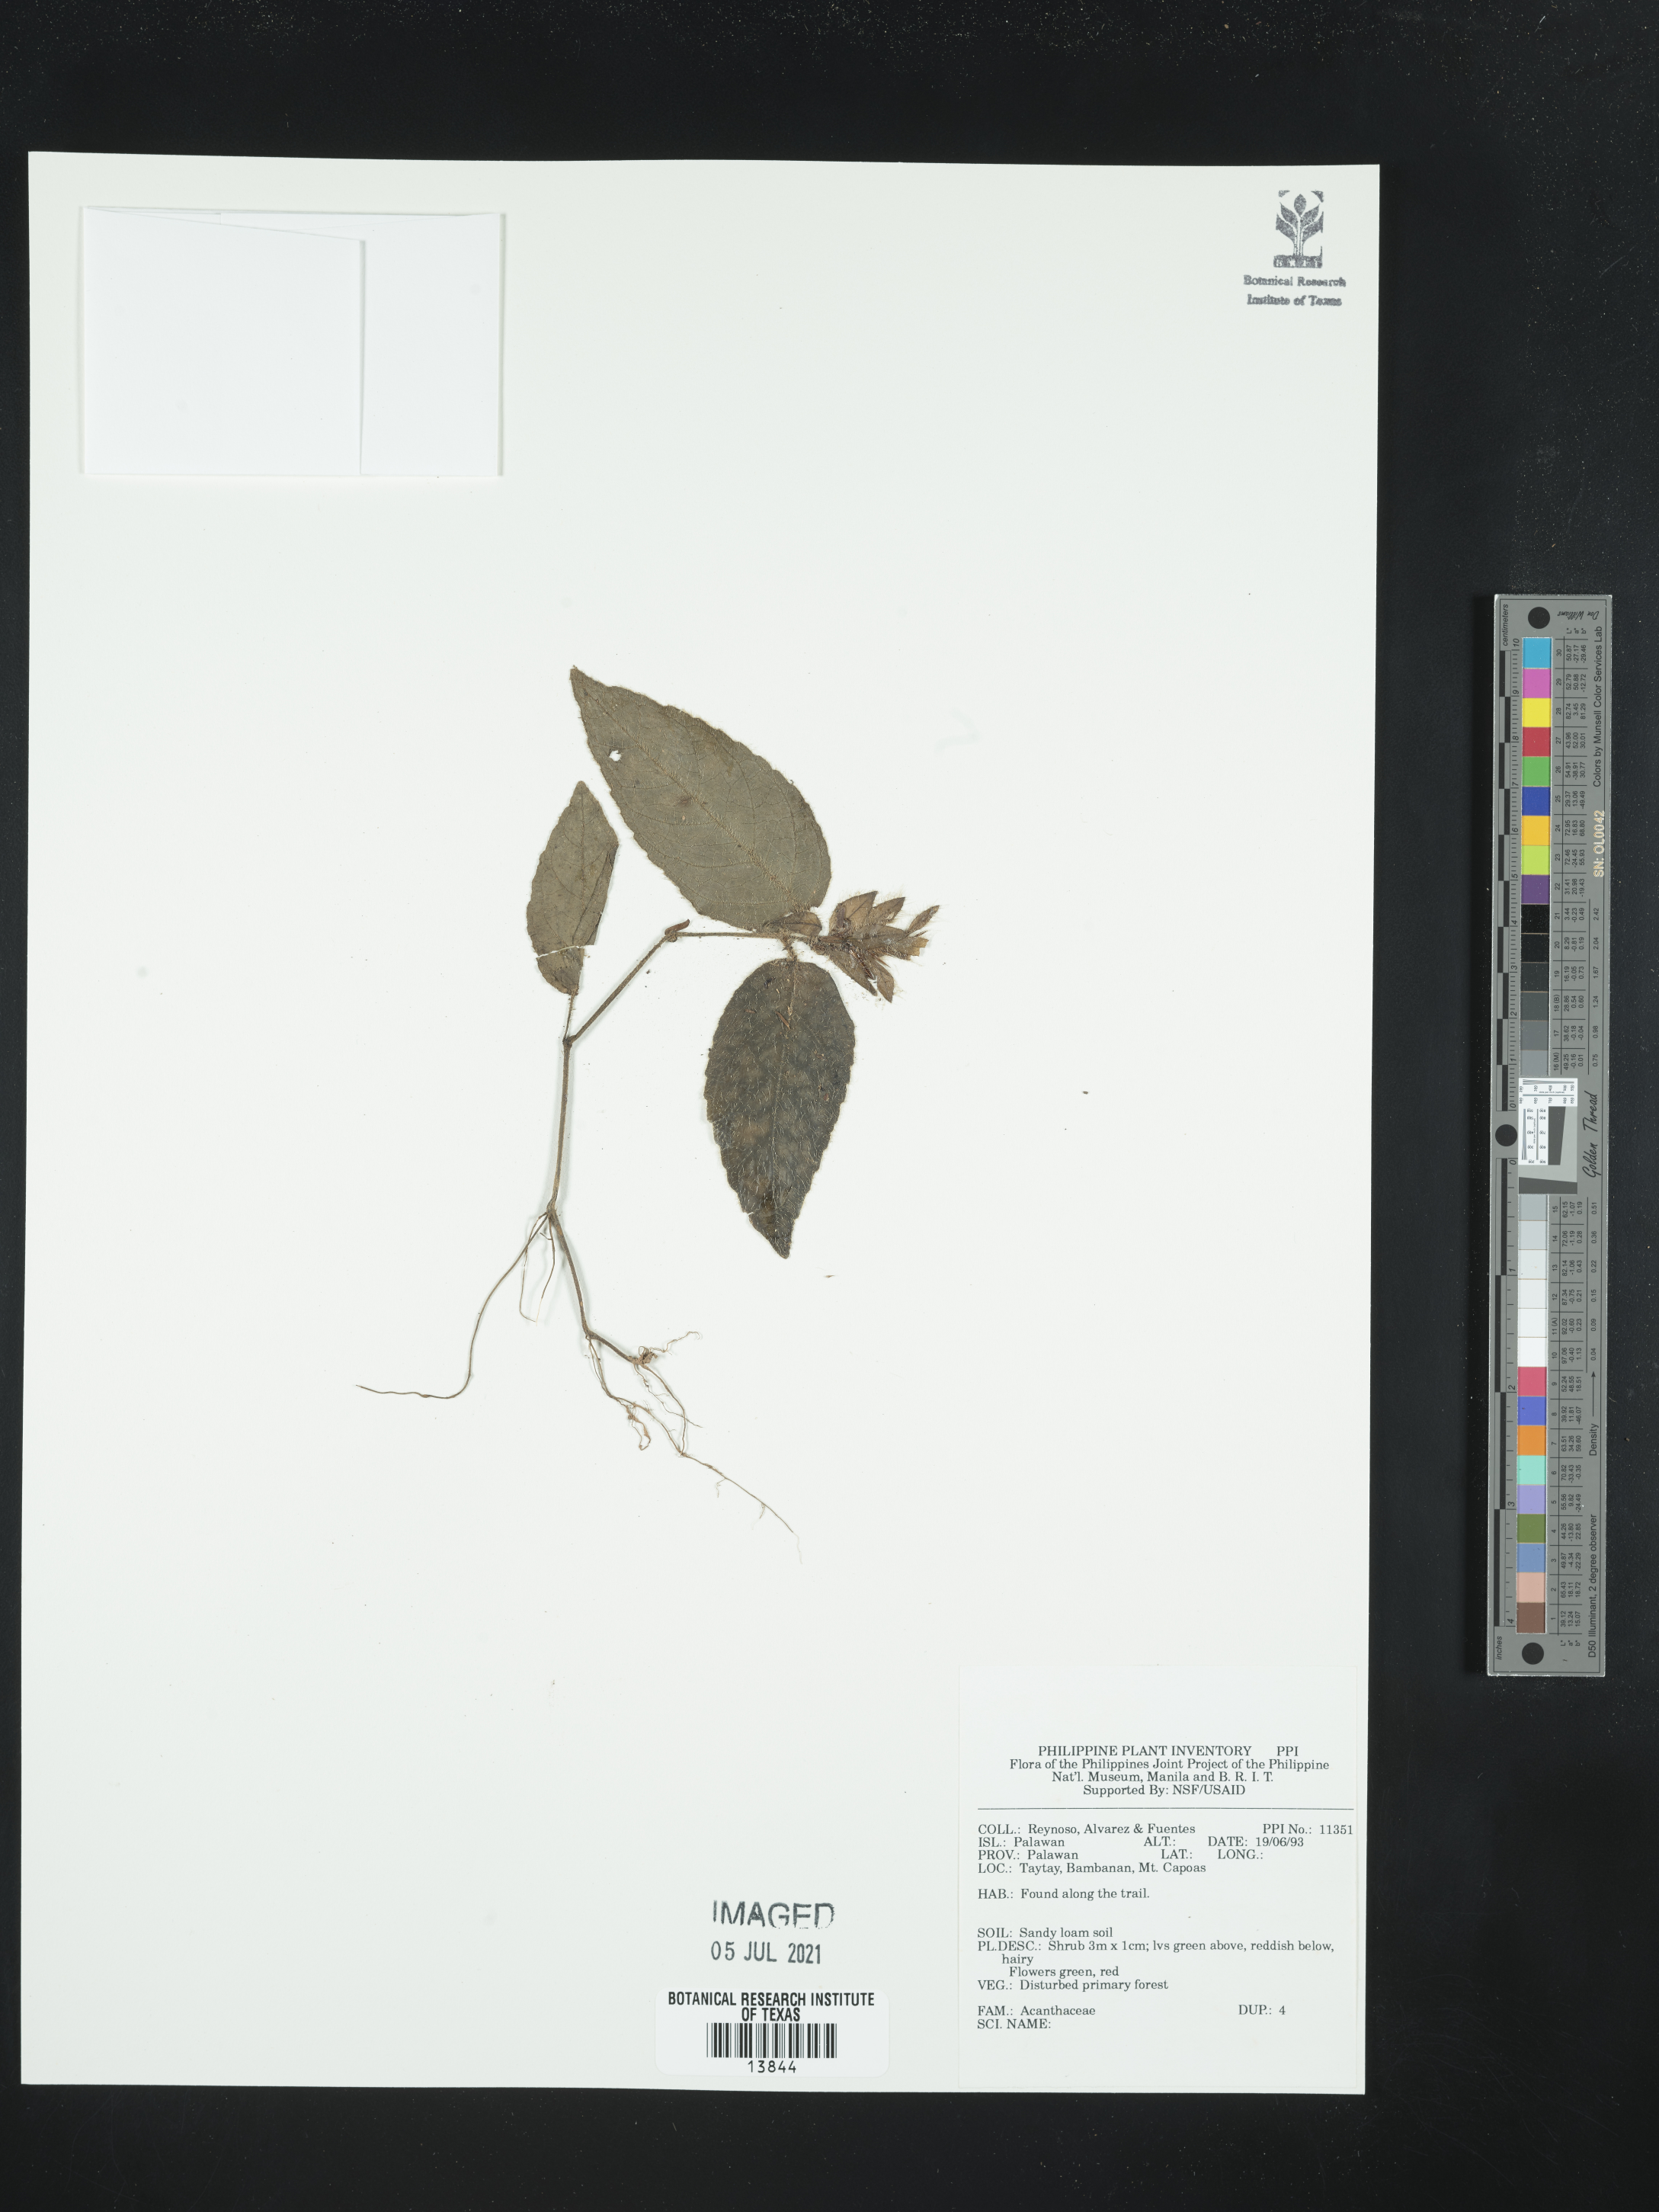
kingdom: Plantae
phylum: Tracheophyta
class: Magnoliopsida
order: Lamiales
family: Acanthaceae
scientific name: Acanthaceae
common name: Acanthaceae
